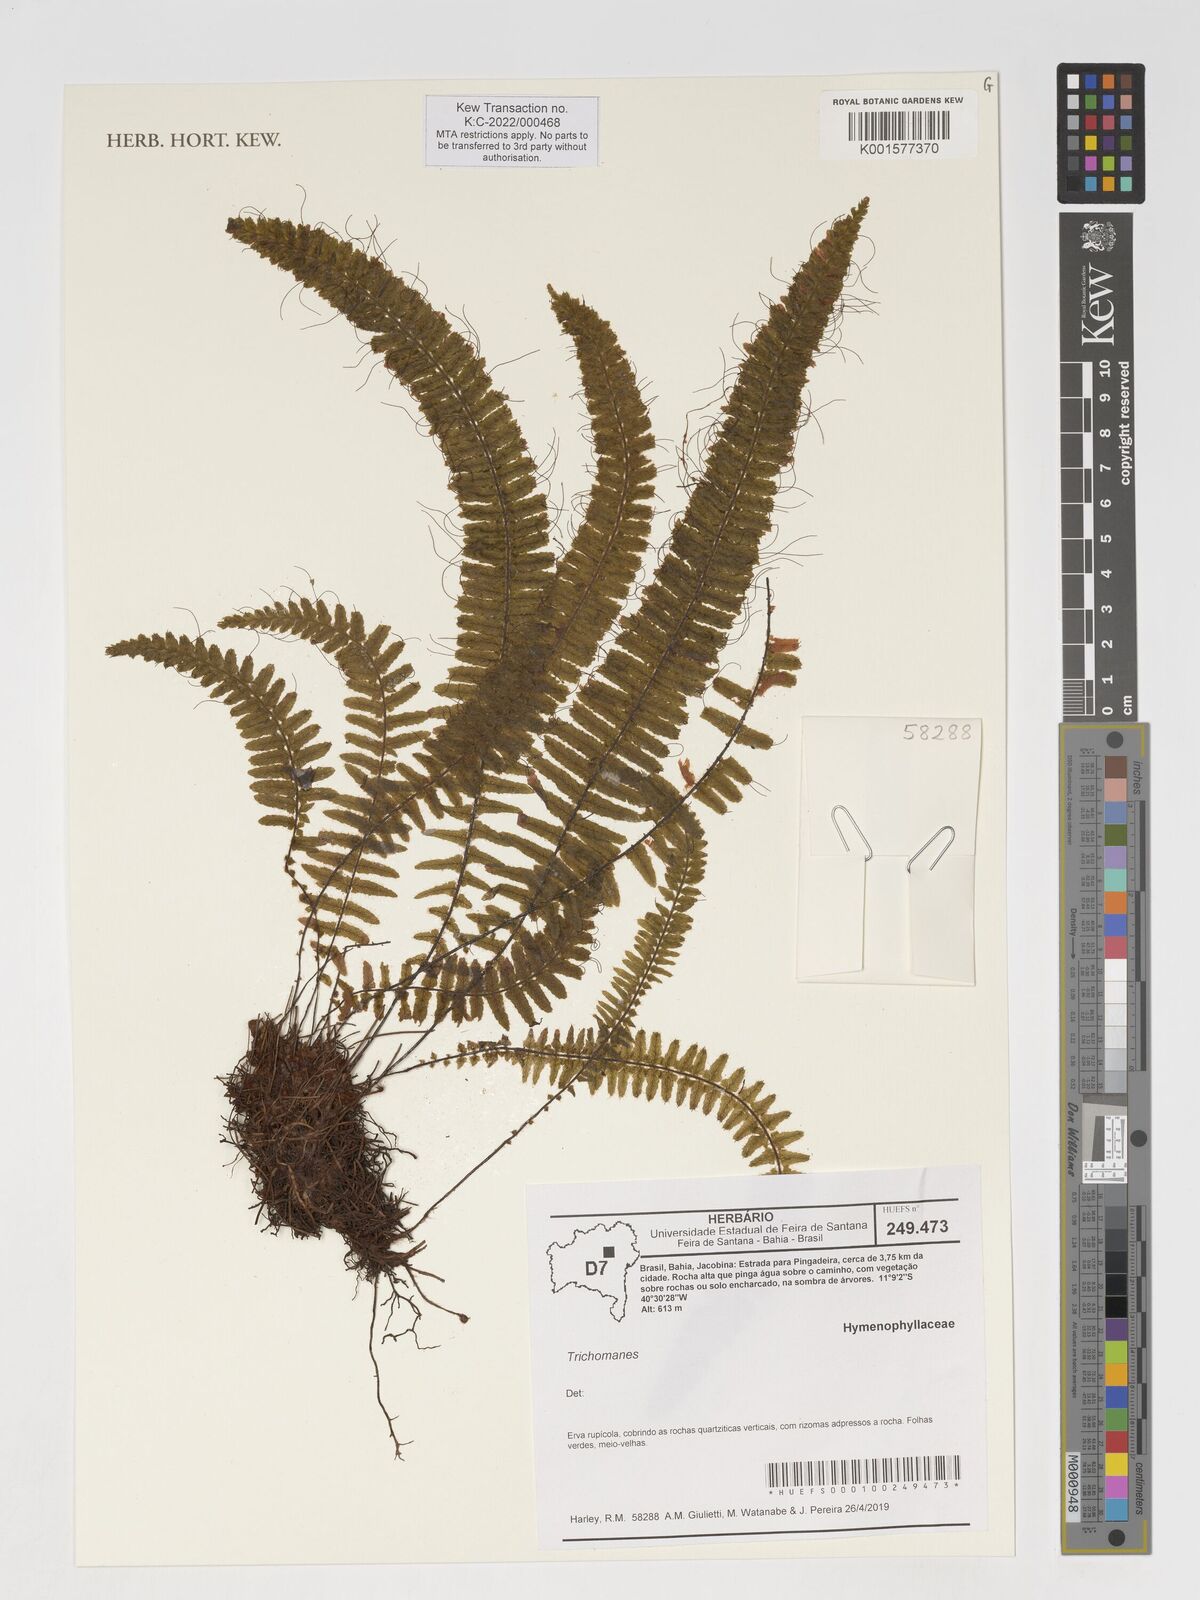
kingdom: Plantae
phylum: Tracheophyta
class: Polypodiopsida
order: Hymenophyllales
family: Hymenophyllaceae
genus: Trichomanes
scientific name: Trichomanes
